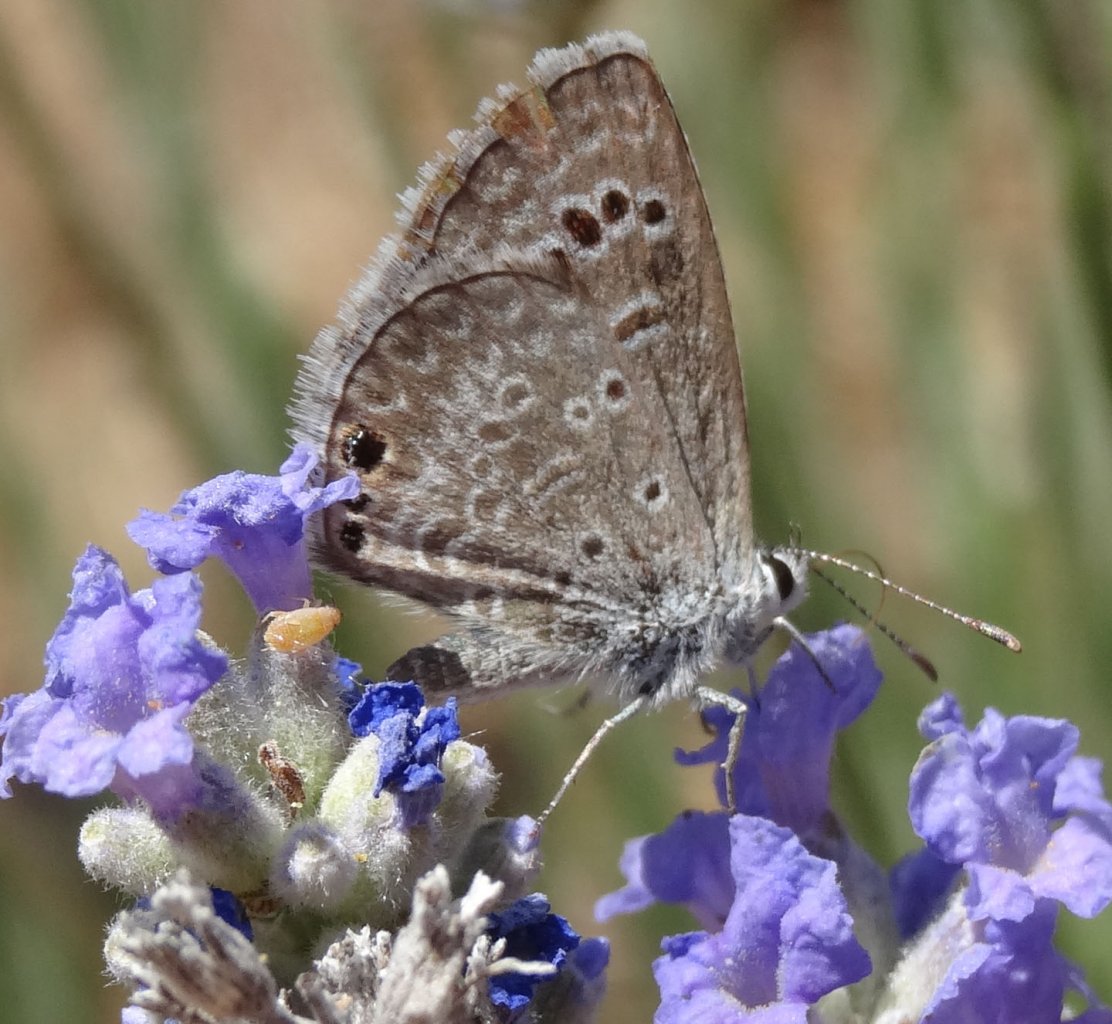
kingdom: Animalia
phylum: Arthropoda
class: Insecta
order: Lepidoptera
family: Lycaenidae
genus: Echinargus
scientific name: Echinargus isola
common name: Reakirt's Blue
